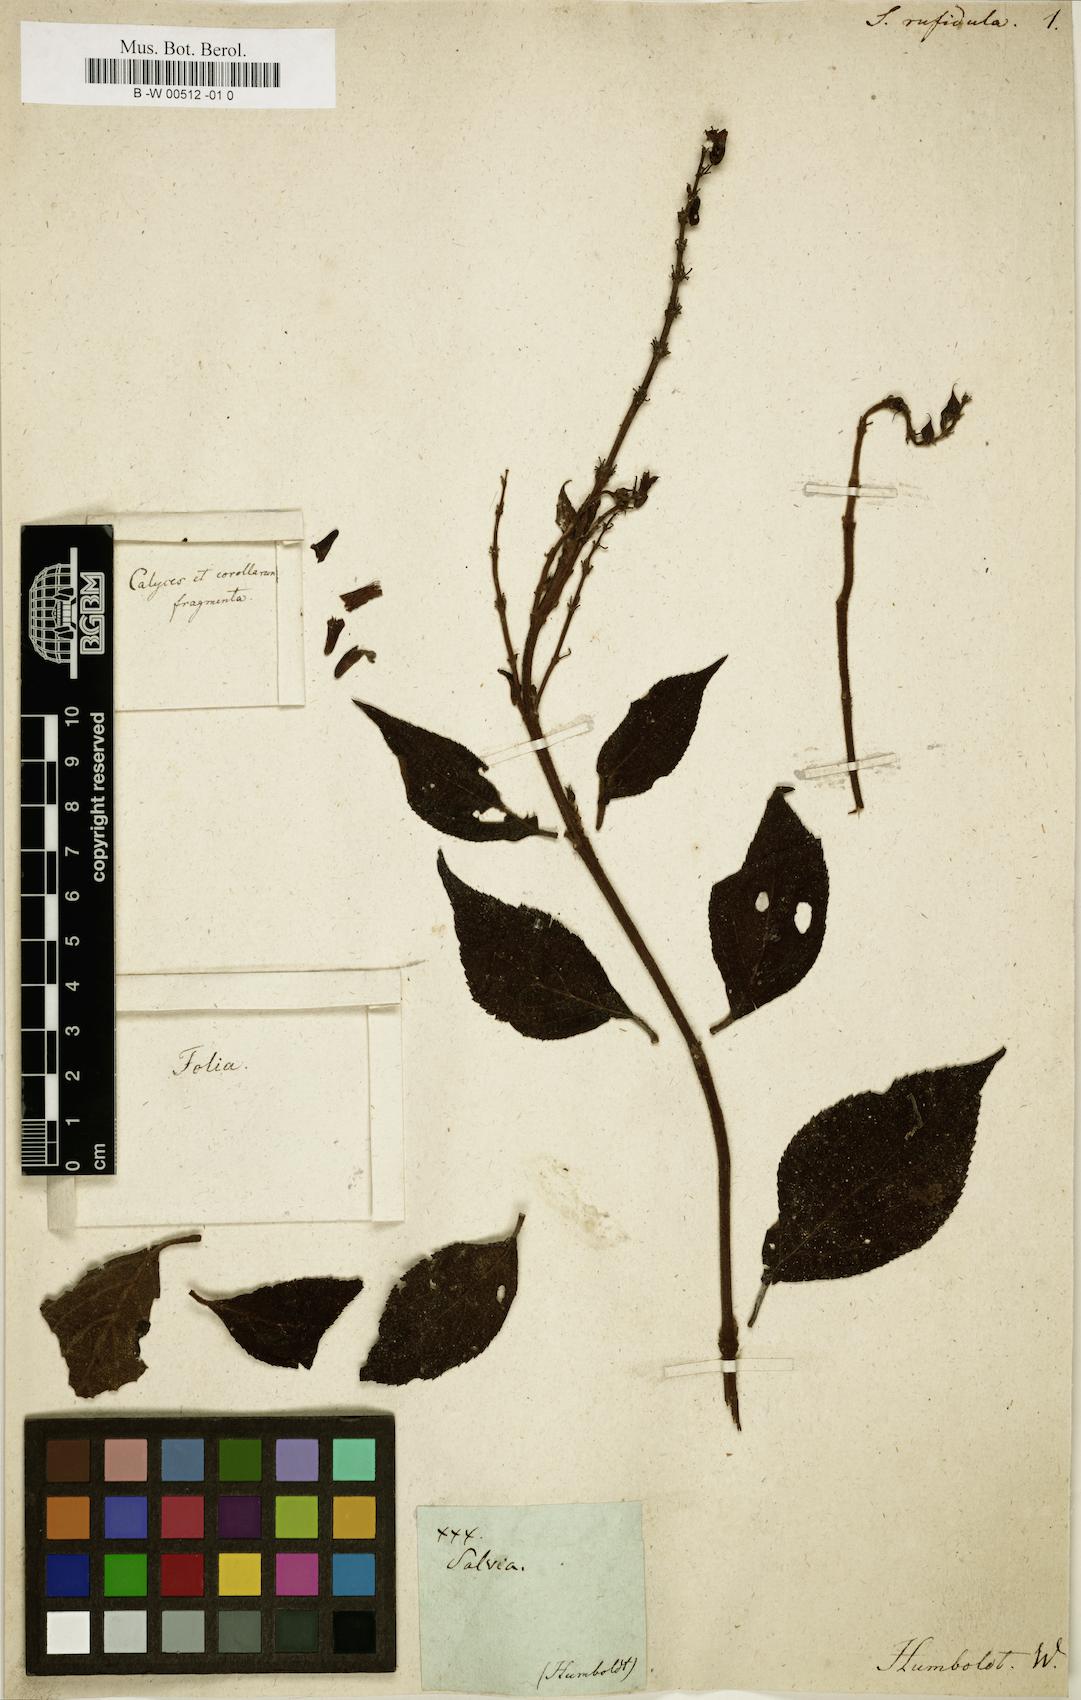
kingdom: Plantae
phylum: Tracheophyta
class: Magnoliopsida
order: Lamiales
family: Lamiaceae
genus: Salvia
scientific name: Salvia
